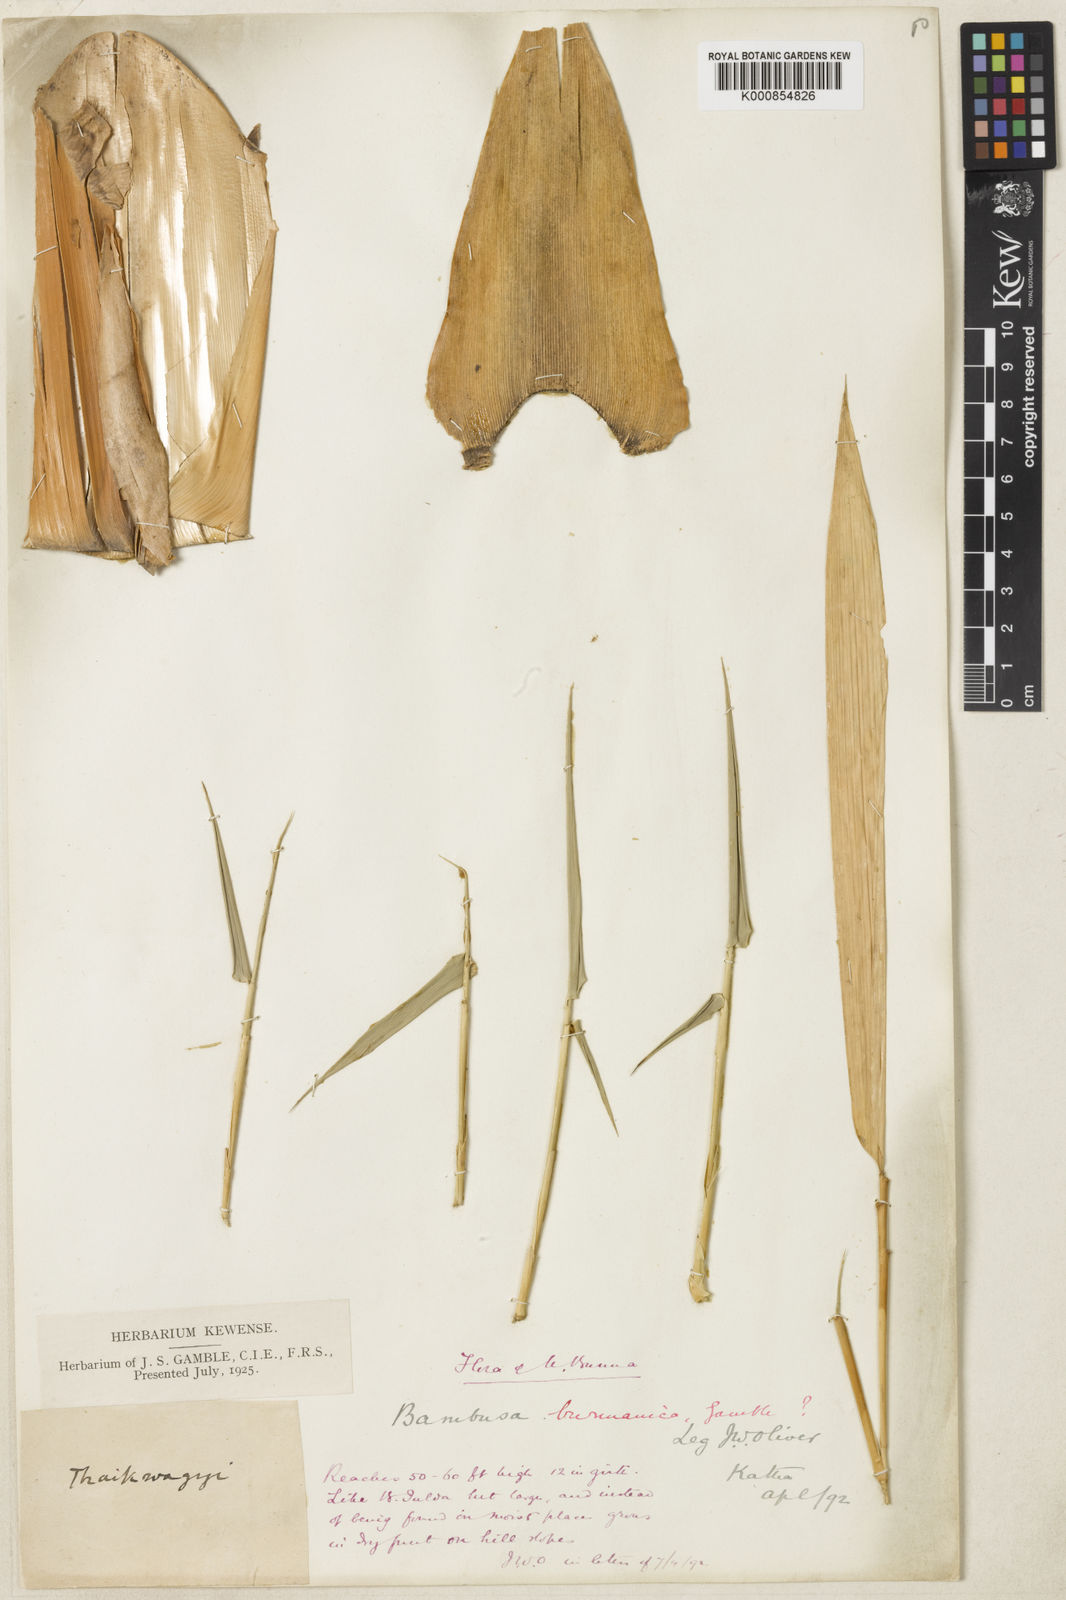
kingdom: Plantae
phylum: Tracheophyta
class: Liliopsida
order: Poales
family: Poaceae
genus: Bambusa
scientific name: Bambusa burmanica
